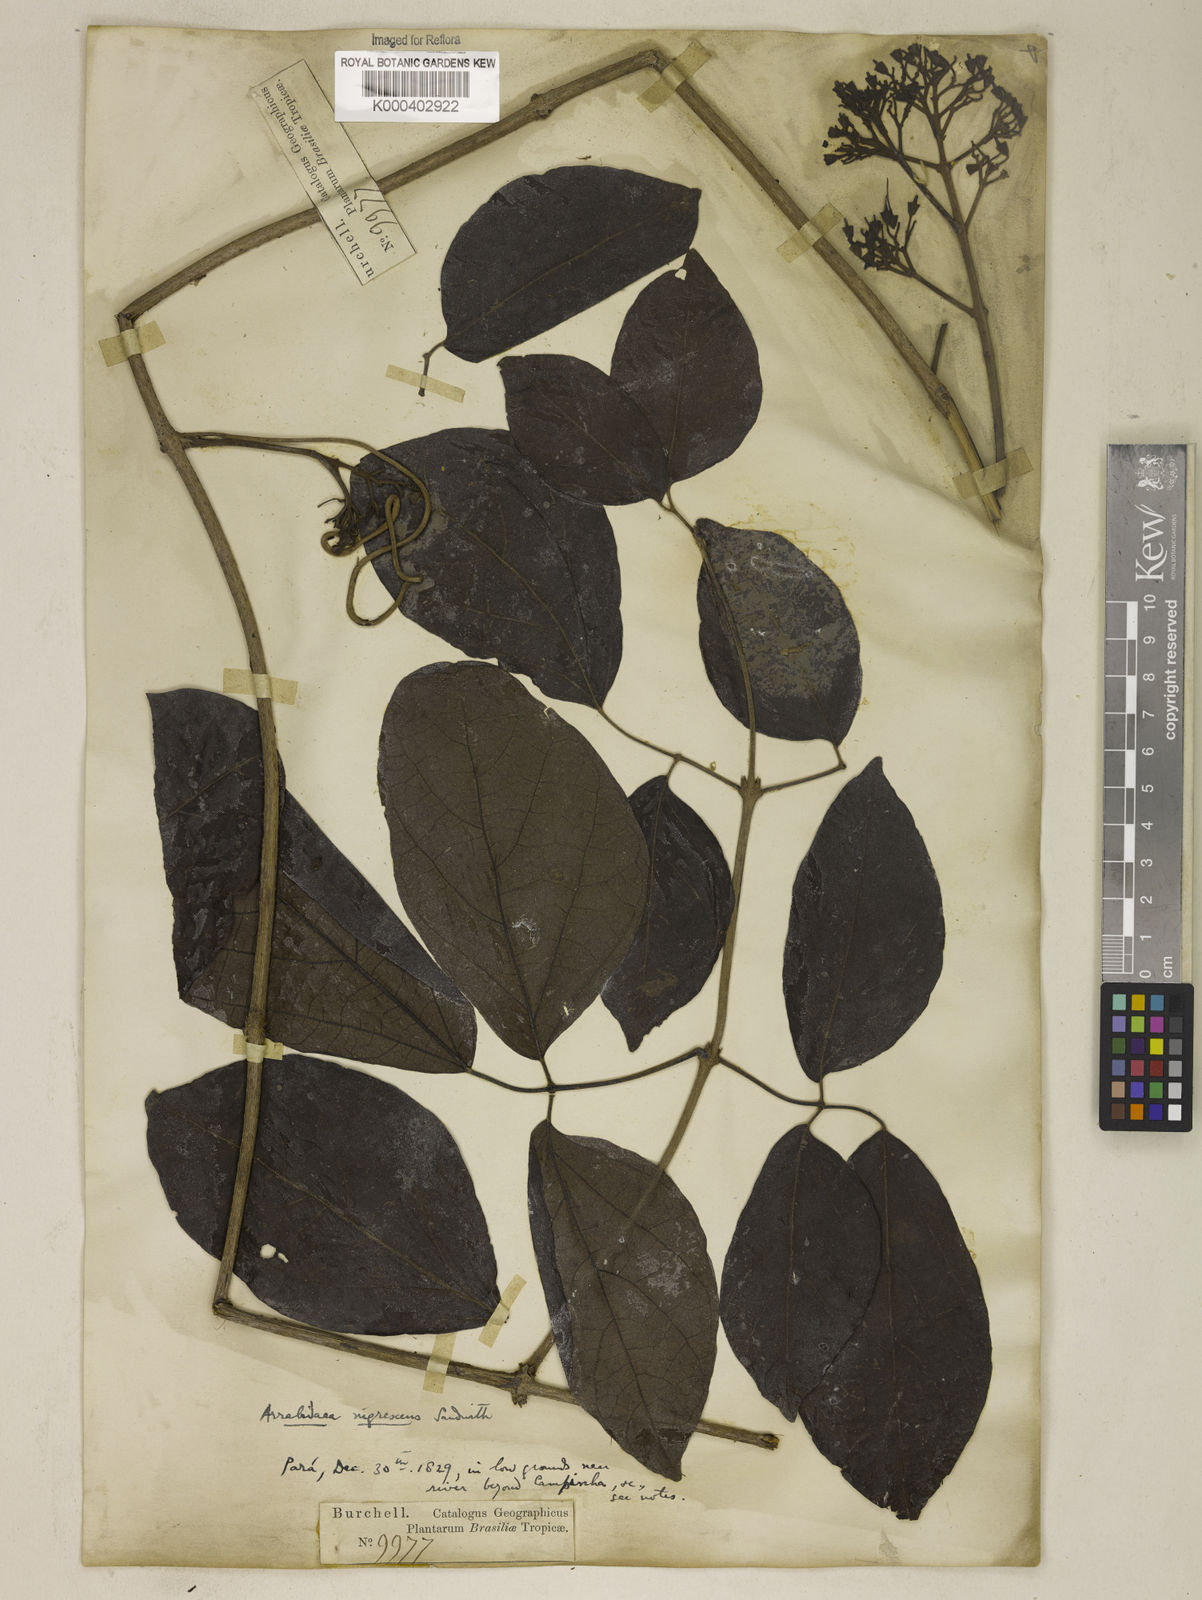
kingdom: Plantae
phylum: Tracheophyta
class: Magnoliopsida
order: Lamiales
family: Bignoniaceae
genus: Fridericia
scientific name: Fridericia nigrescens
